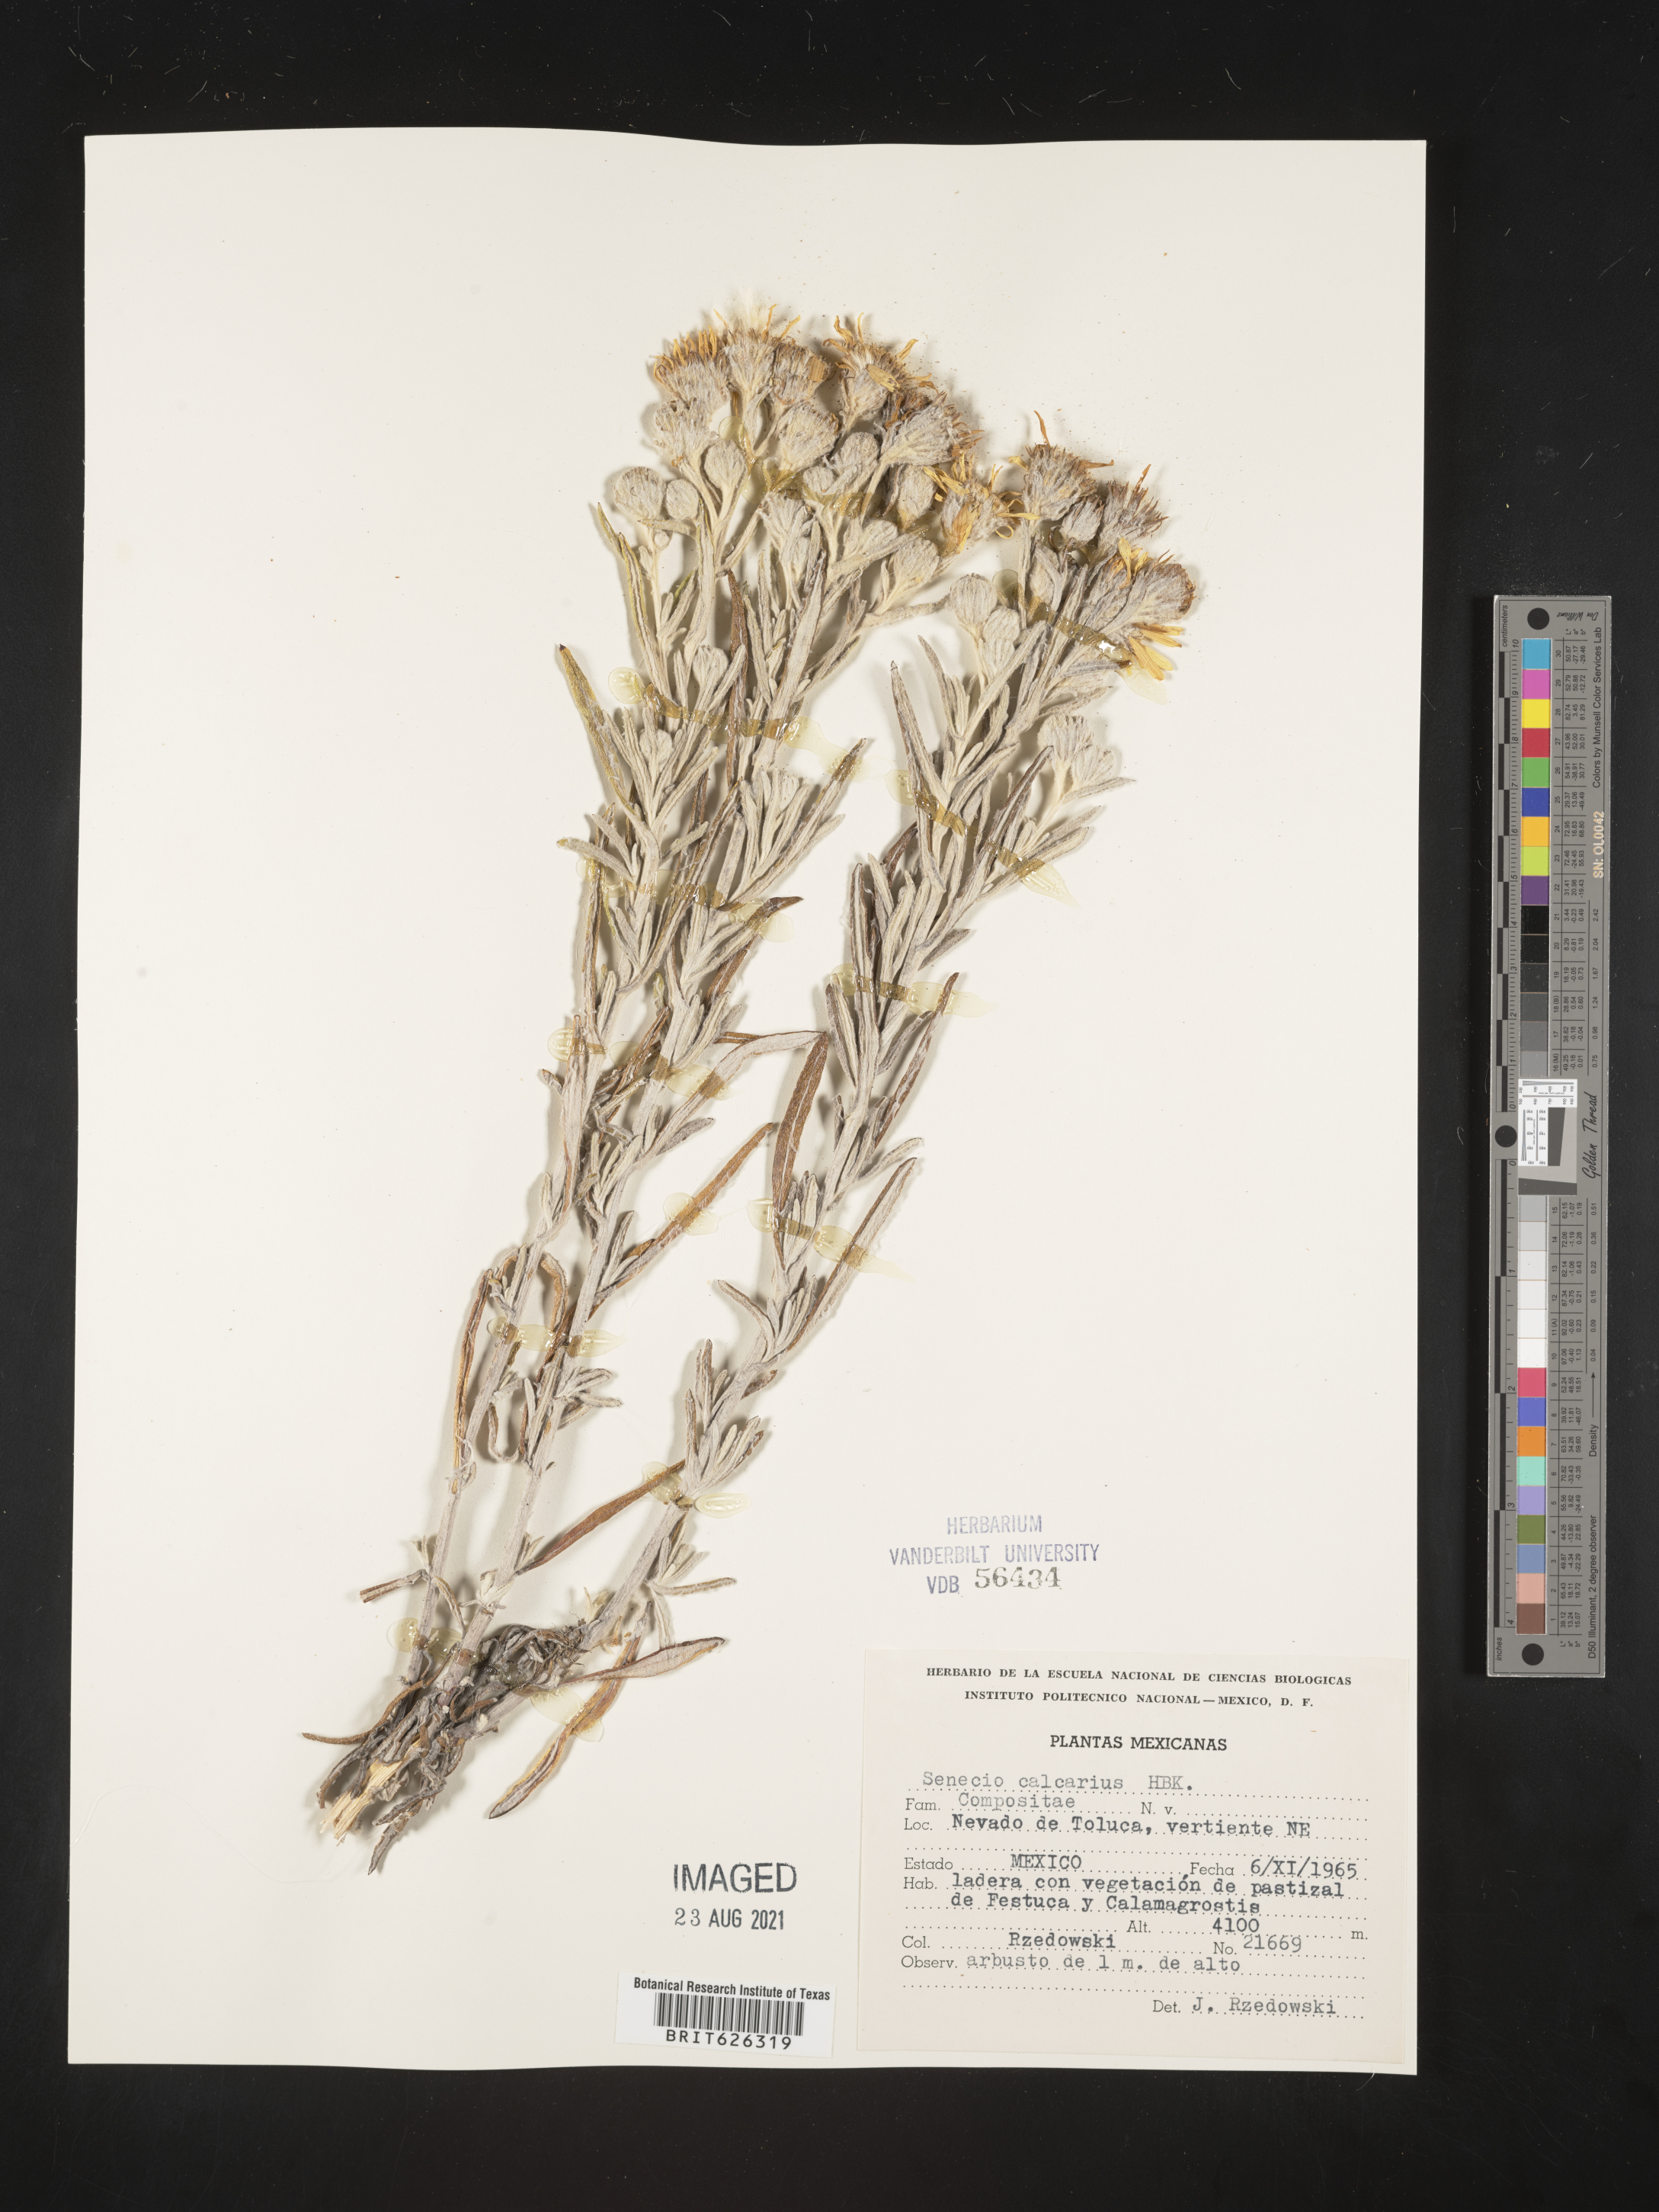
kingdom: Plantae
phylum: Tracheophyta
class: Magnoliopsida
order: Asterales
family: Asteraceae
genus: Senecio
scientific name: Senecio
